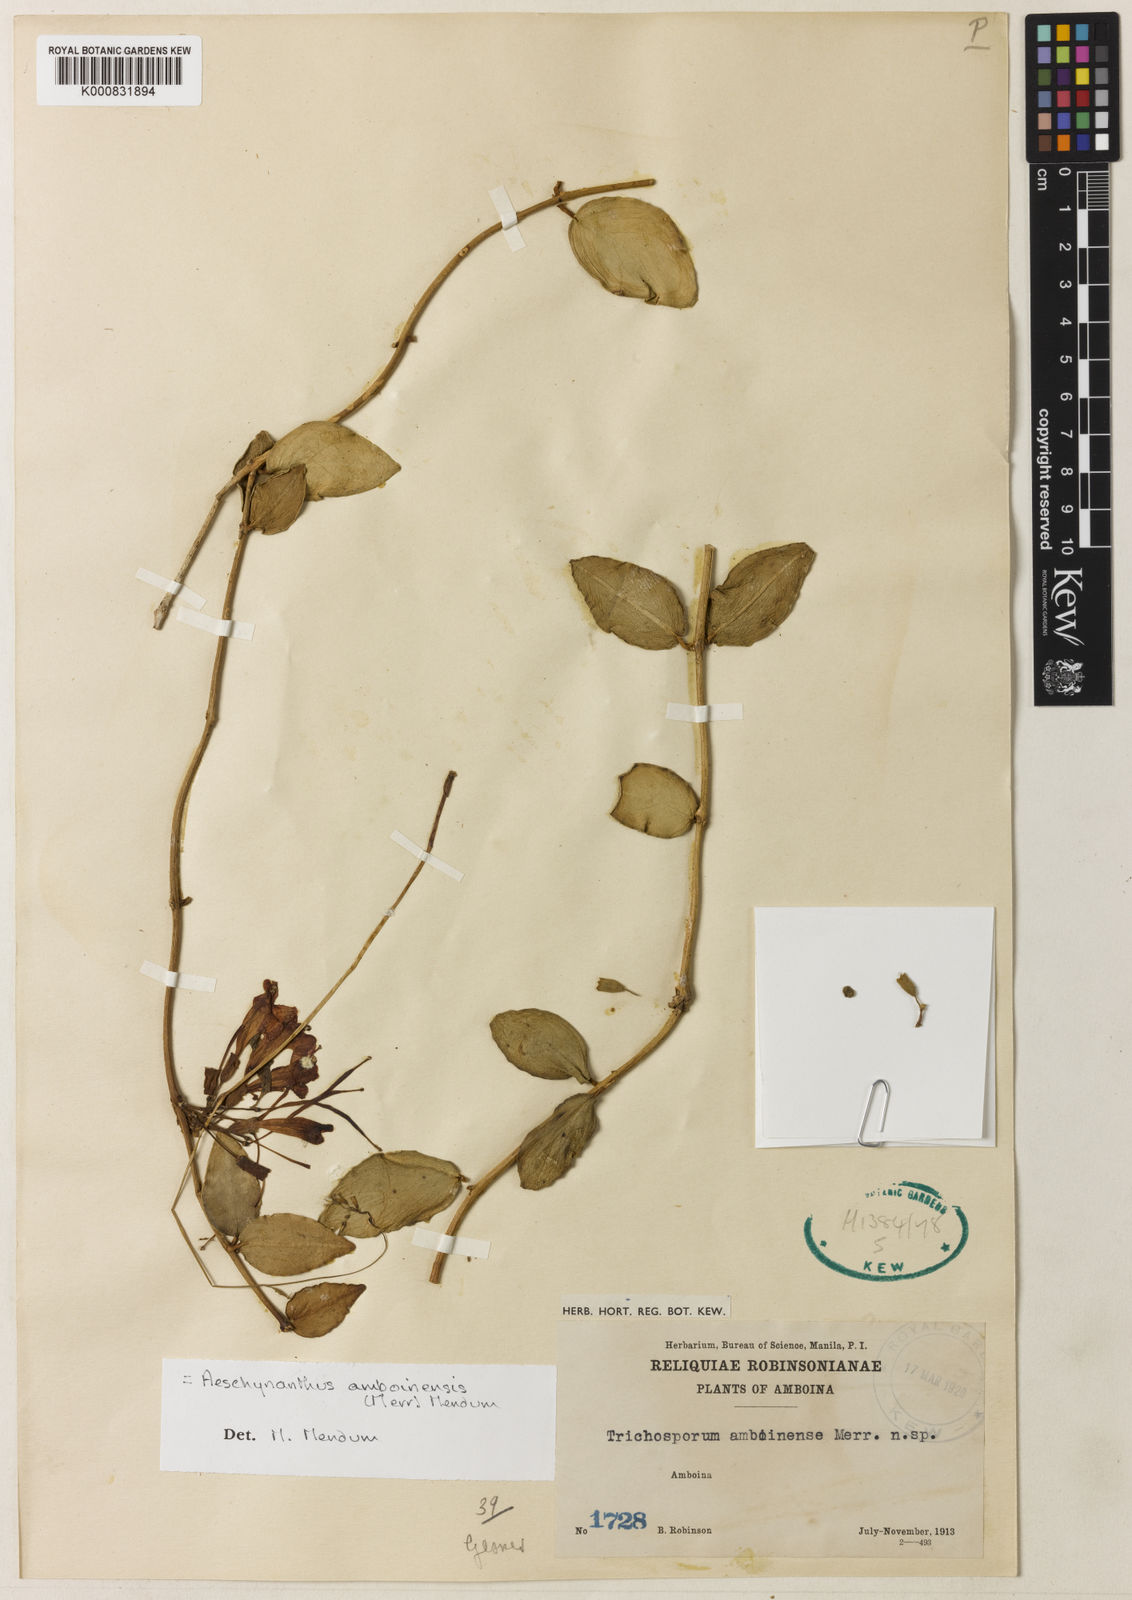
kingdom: Plantae
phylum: Tracheophyta
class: Magnoliopsida
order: Lamiales
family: Gesneriaceae
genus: Aeschynanthus
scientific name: Aeschynanthus amboinensis
